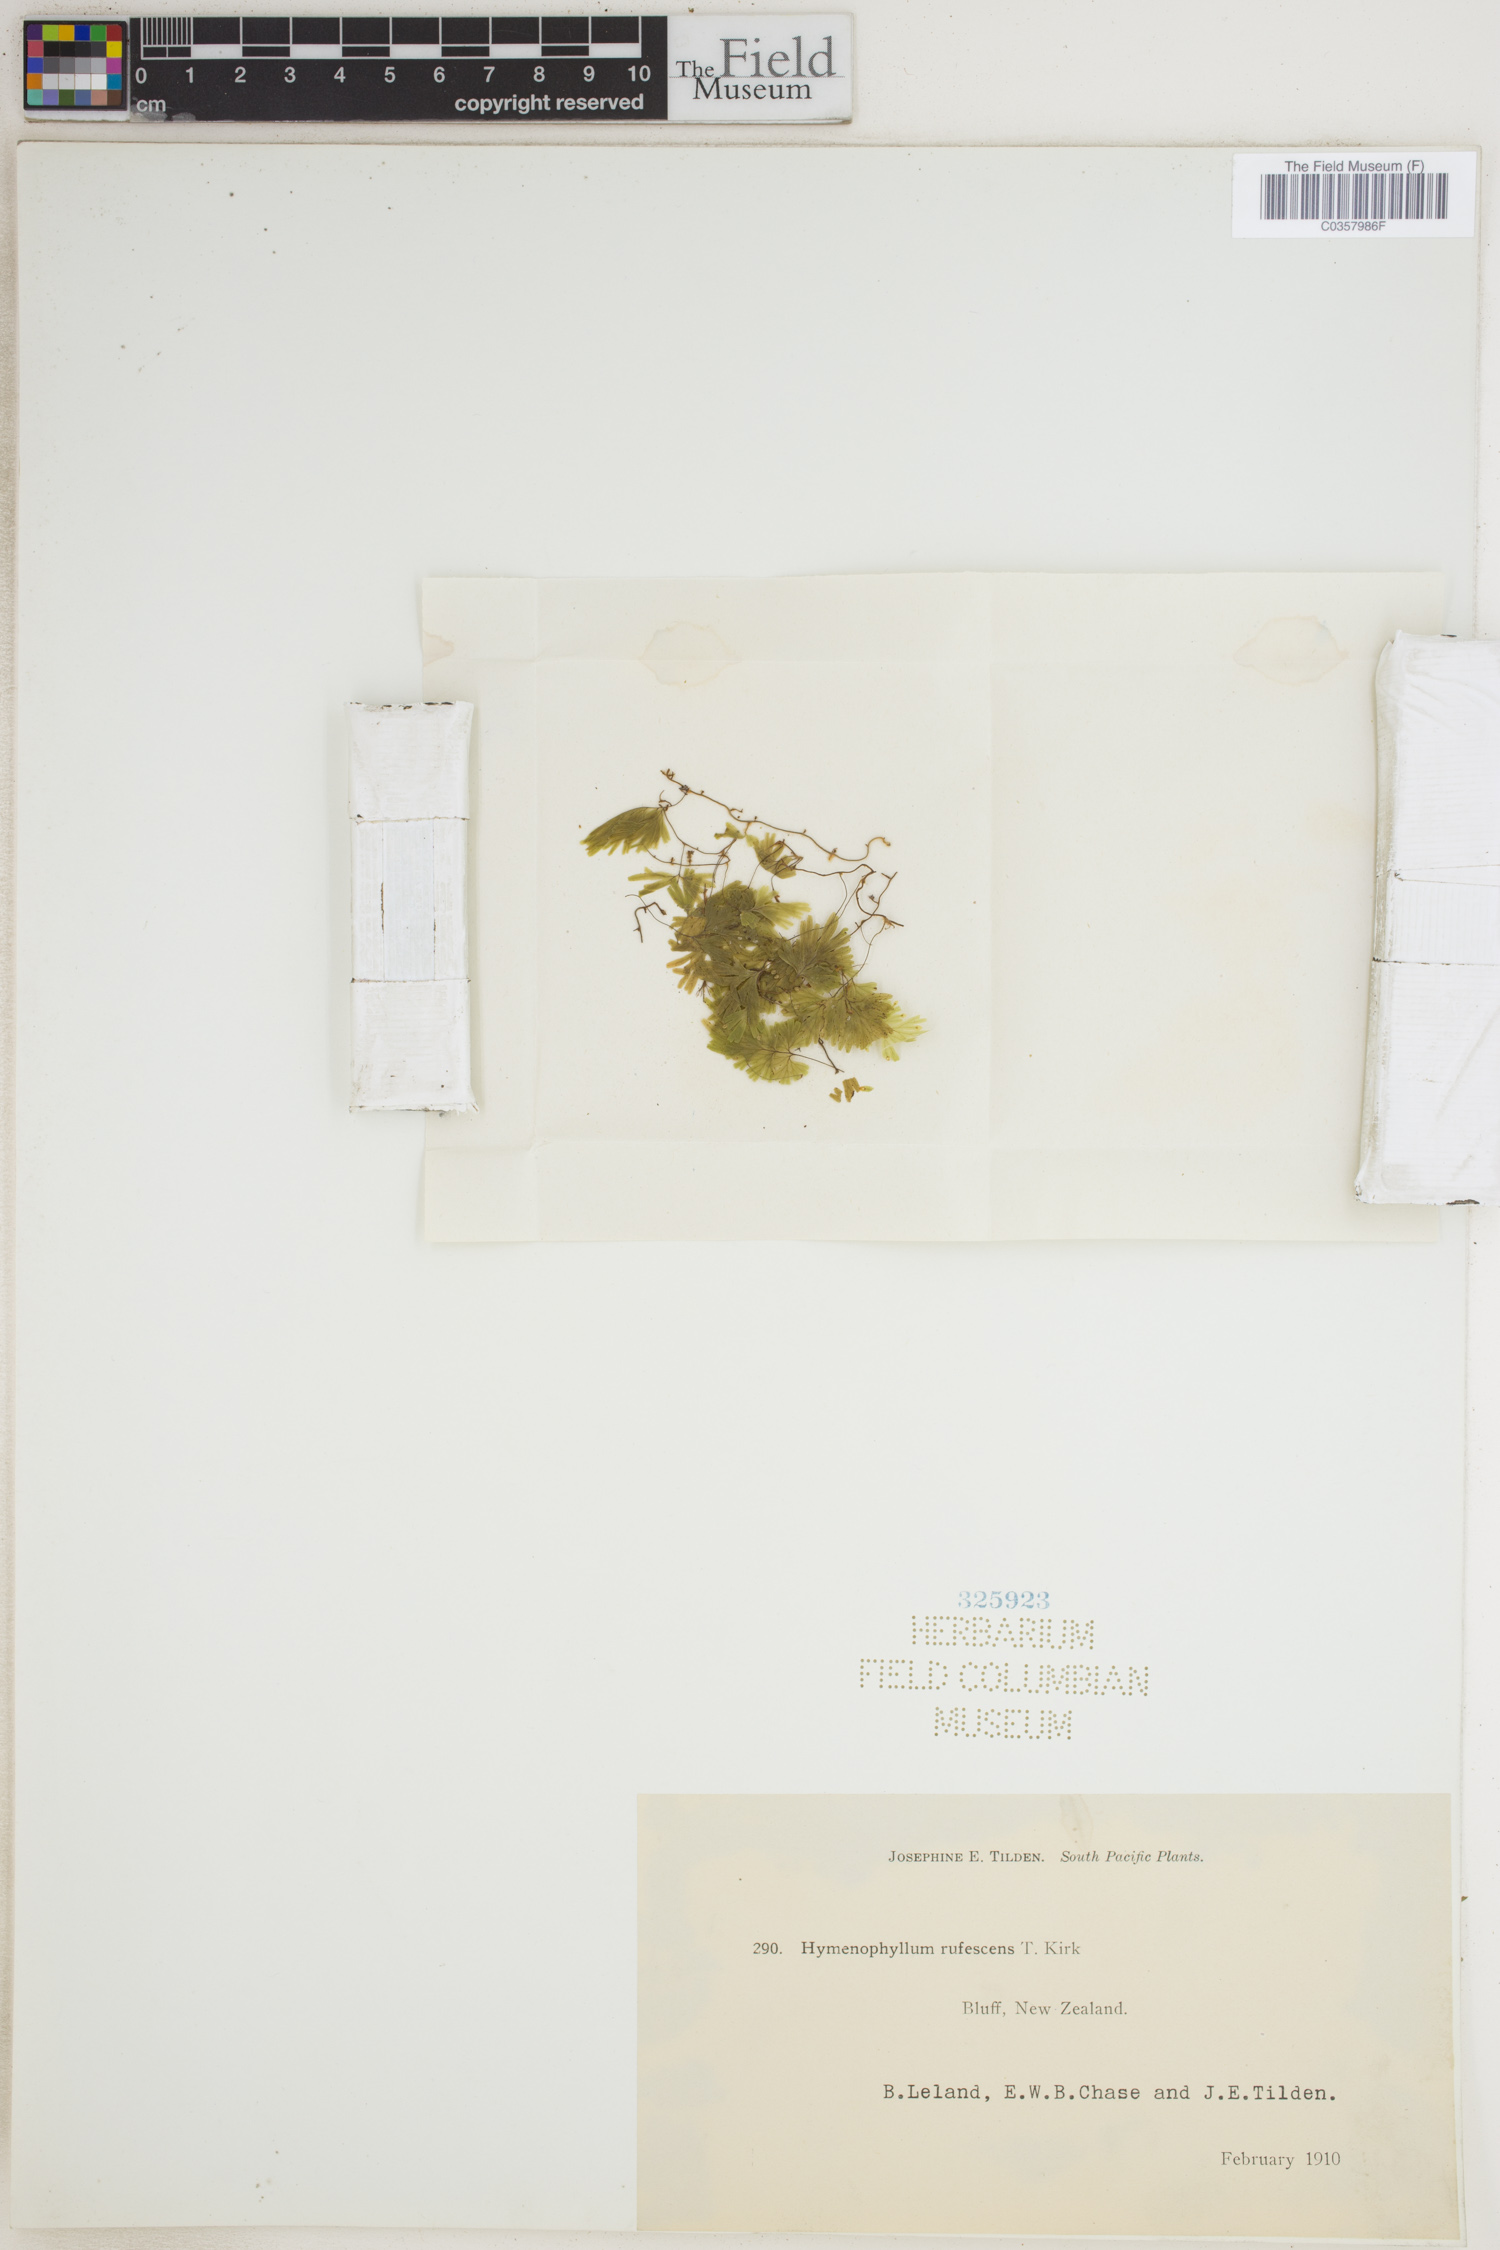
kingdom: Plantae
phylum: Tracheophyta
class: Polypodiopsida
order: Hymenophyllales
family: Hymenophyllaceae
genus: Hymenophyllum
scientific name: Hymenophyllum rufescens
